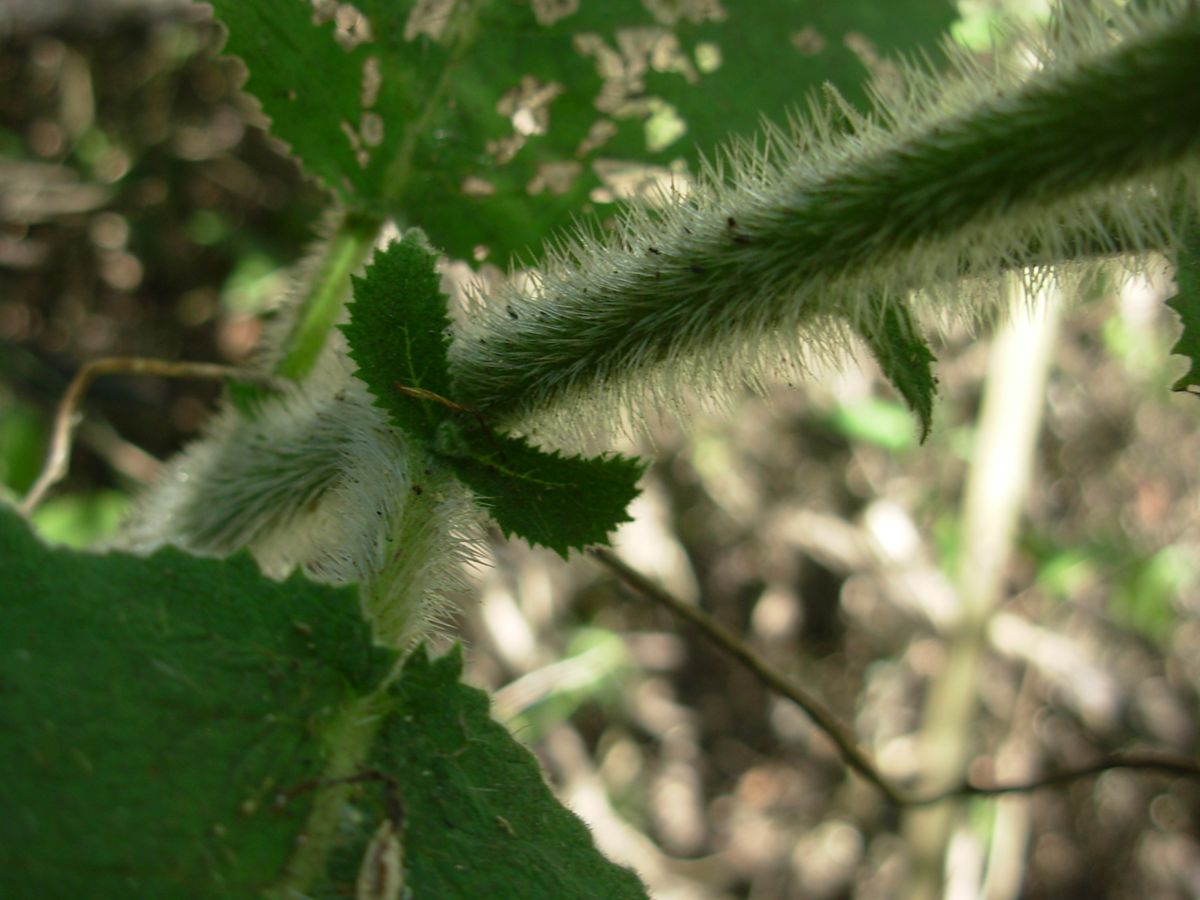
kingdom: Plantae
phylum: Tracheophyta
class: Magnoliopsida
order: Boraginales
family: Namaceae
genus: Wigandia
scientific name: Wigandia urens
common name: Caracus wigandia
